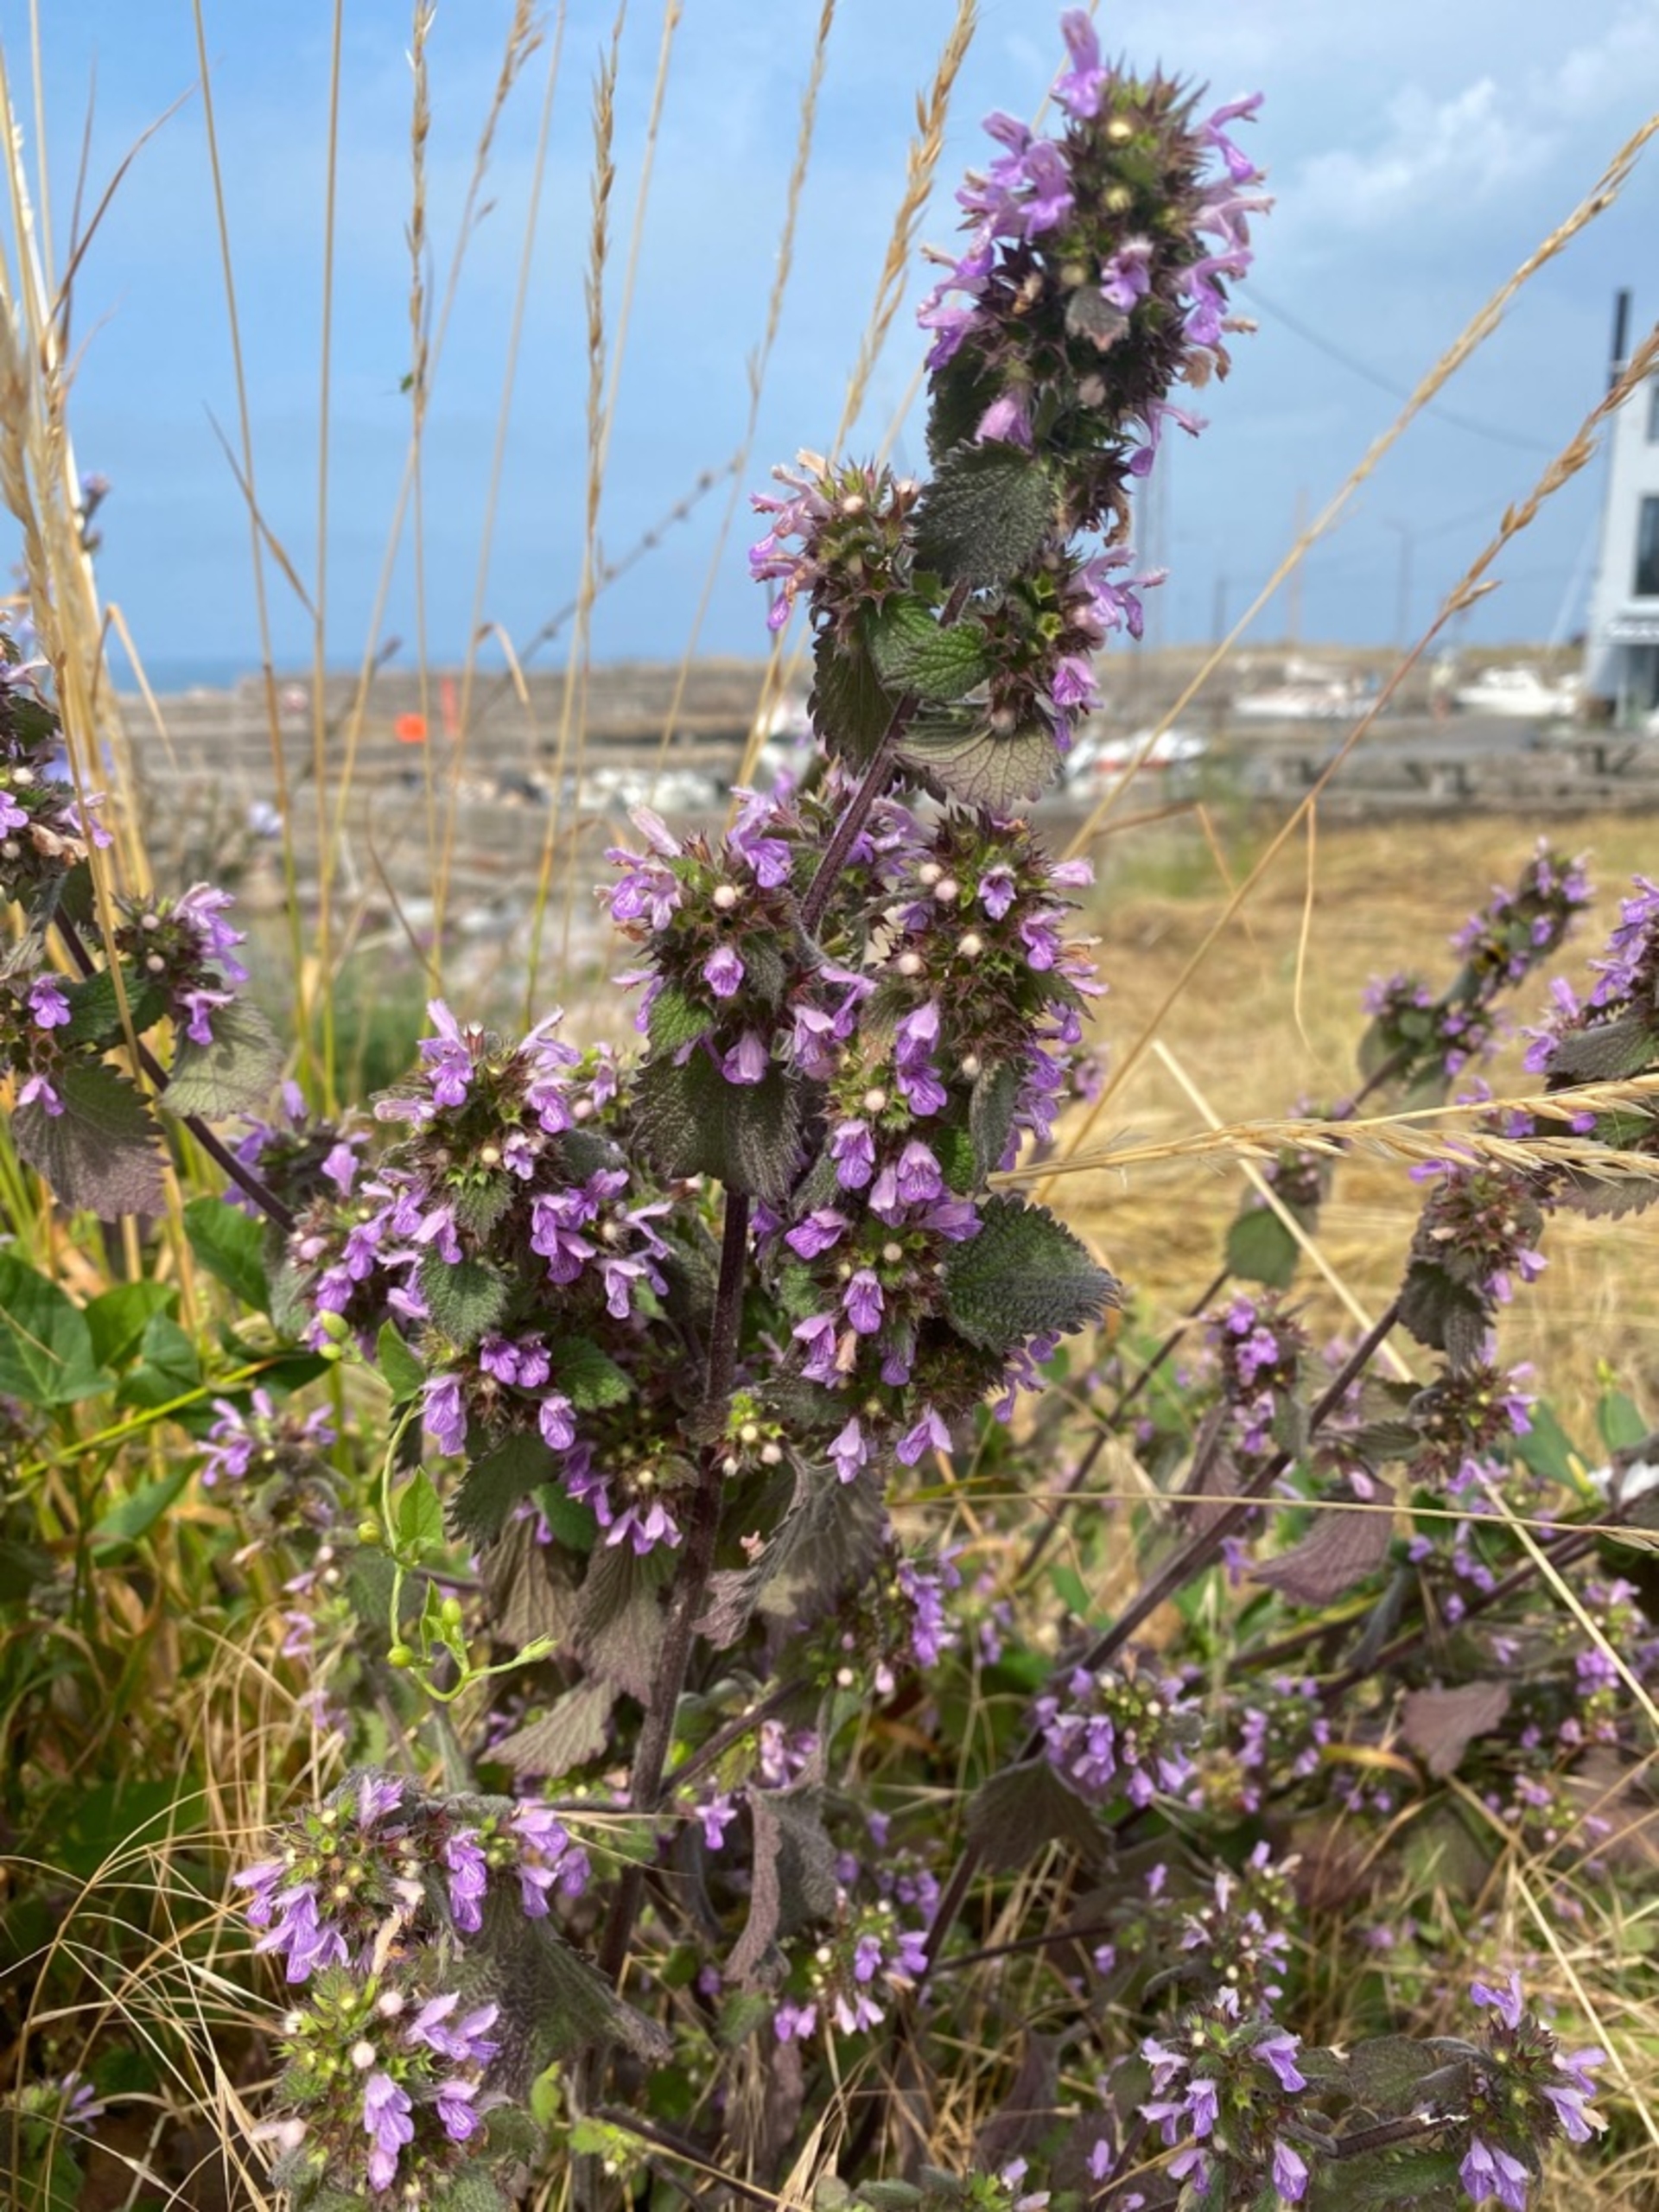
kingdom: Plantae
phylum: Tracheophyta
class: Magnoliopsida
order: Lamiales
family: Lamiaceae
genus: Ballota
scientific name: Ballota nigra
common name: Tandbæger
